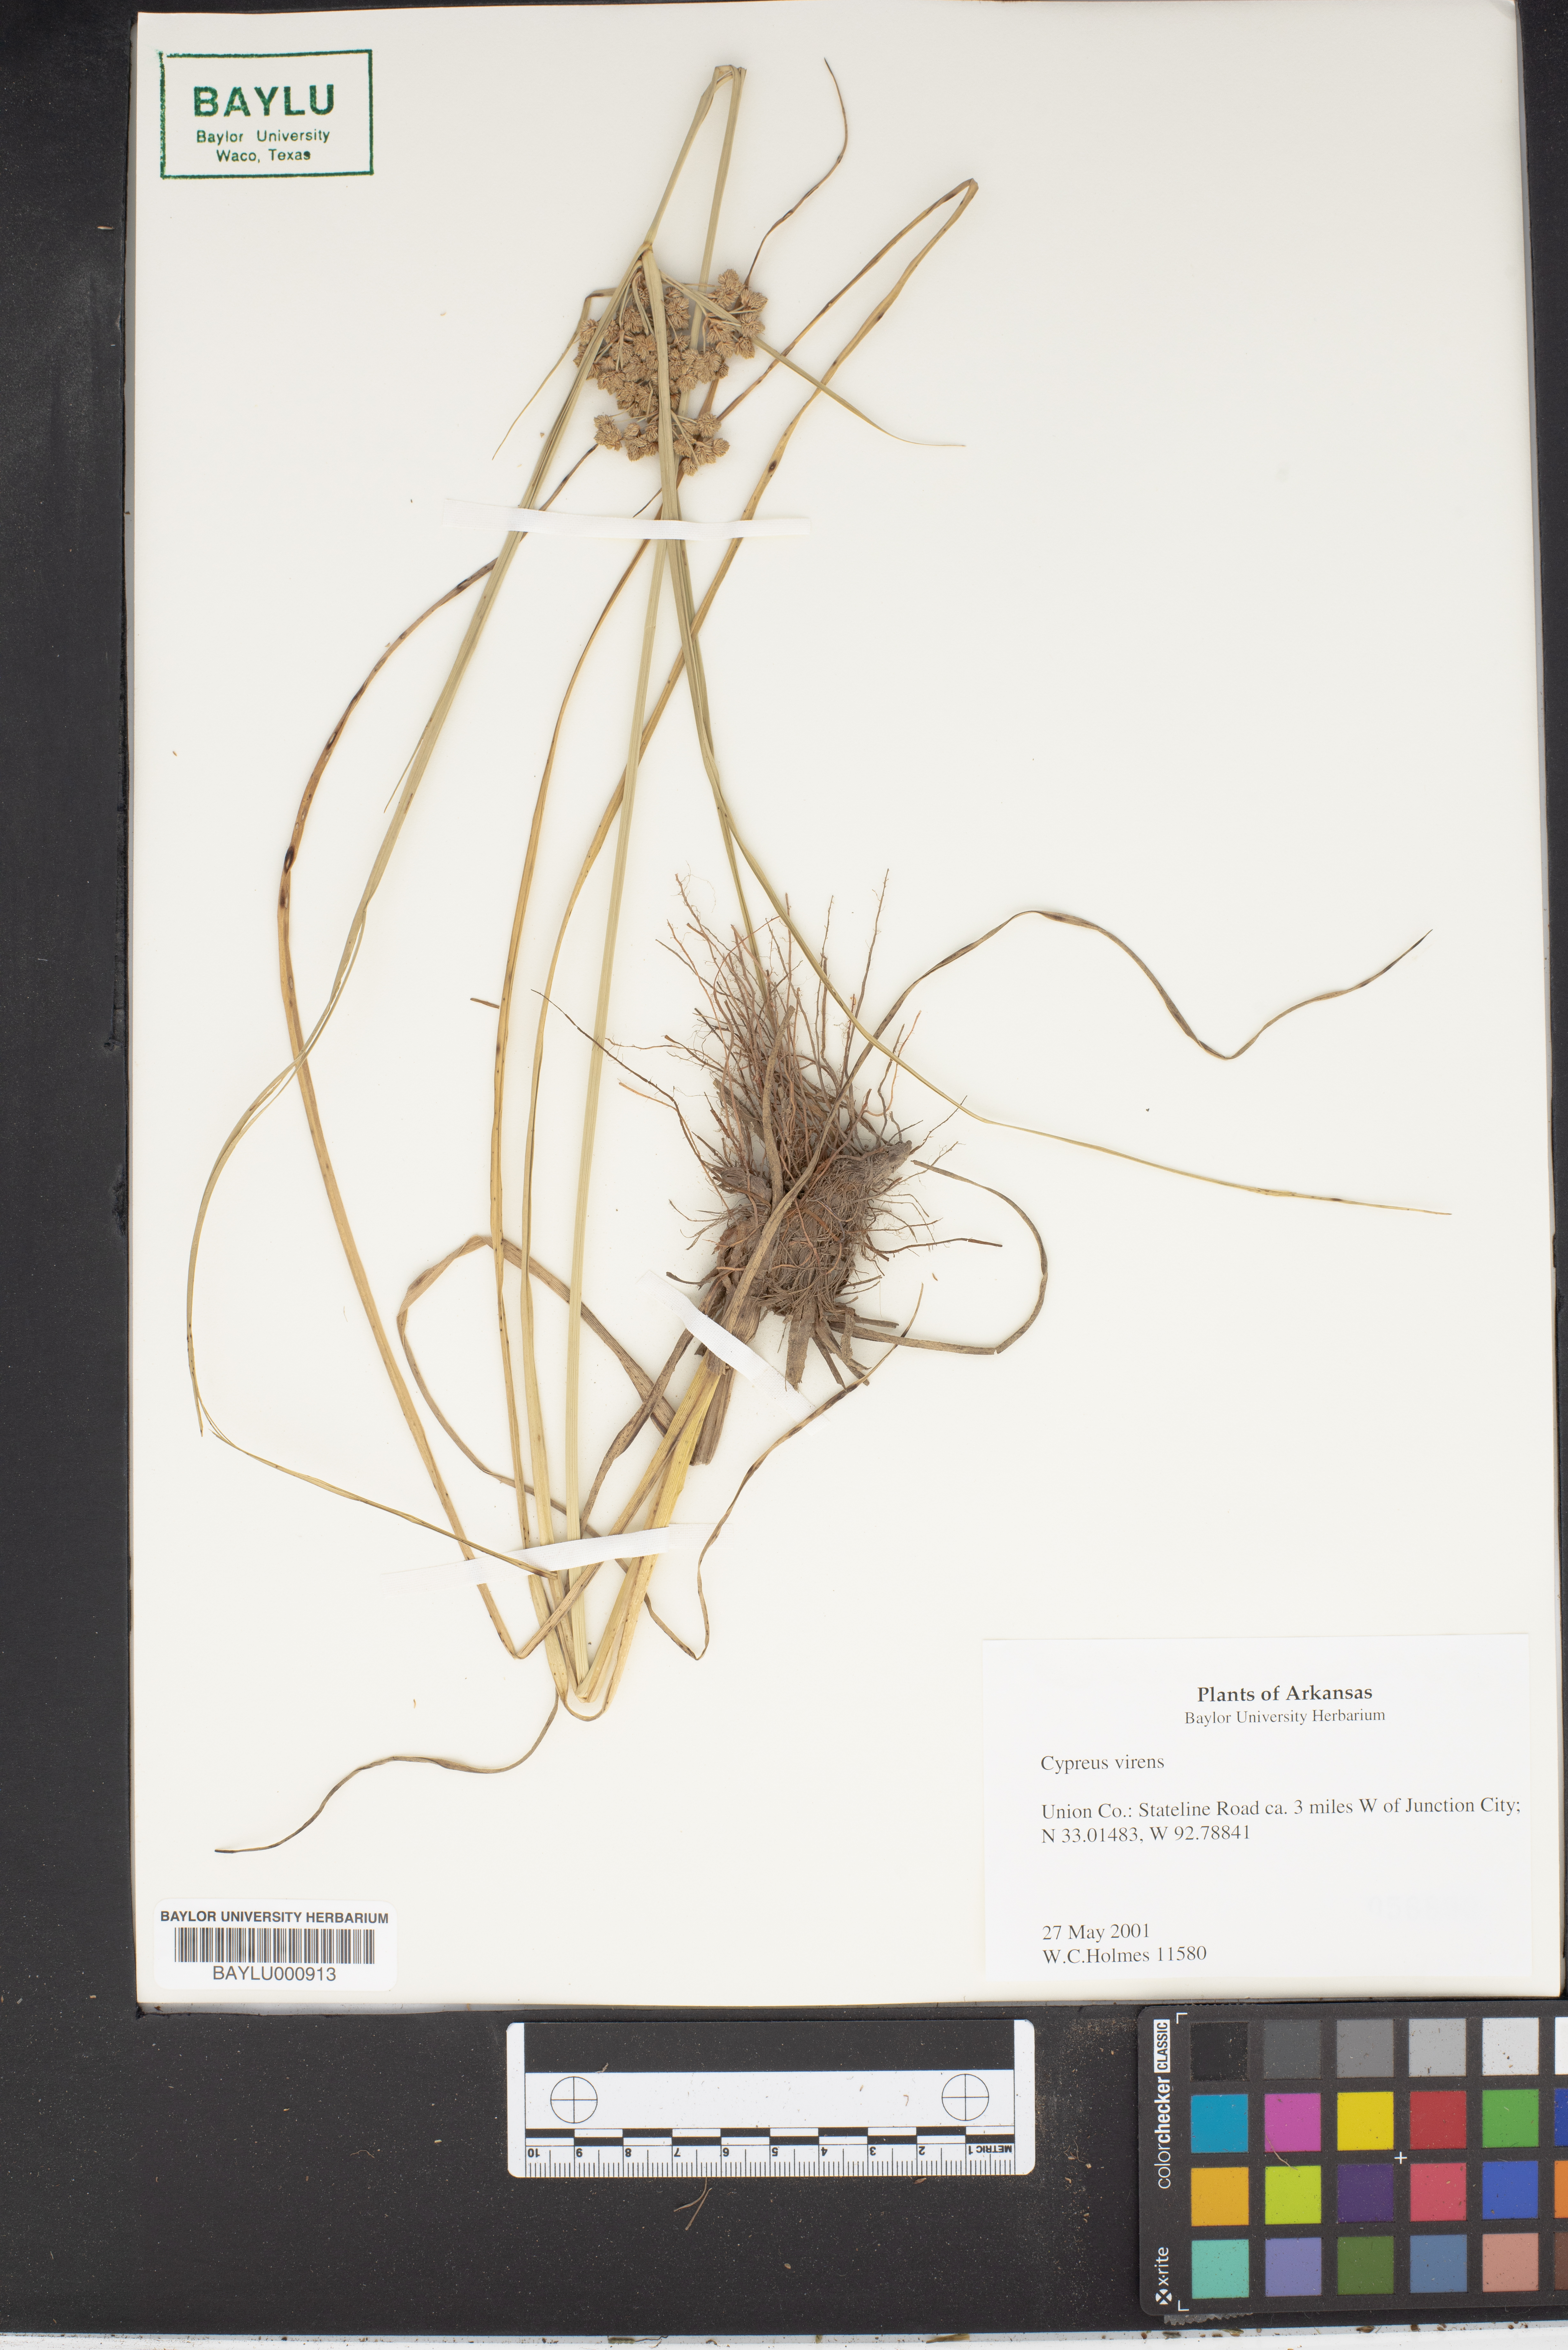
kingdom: Plantae
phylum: Tracheophyta
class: Liliopsida
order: Poales
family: Cyperaceae
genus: Cyperus
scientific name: Cyperus virens
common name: Green flatsedge
